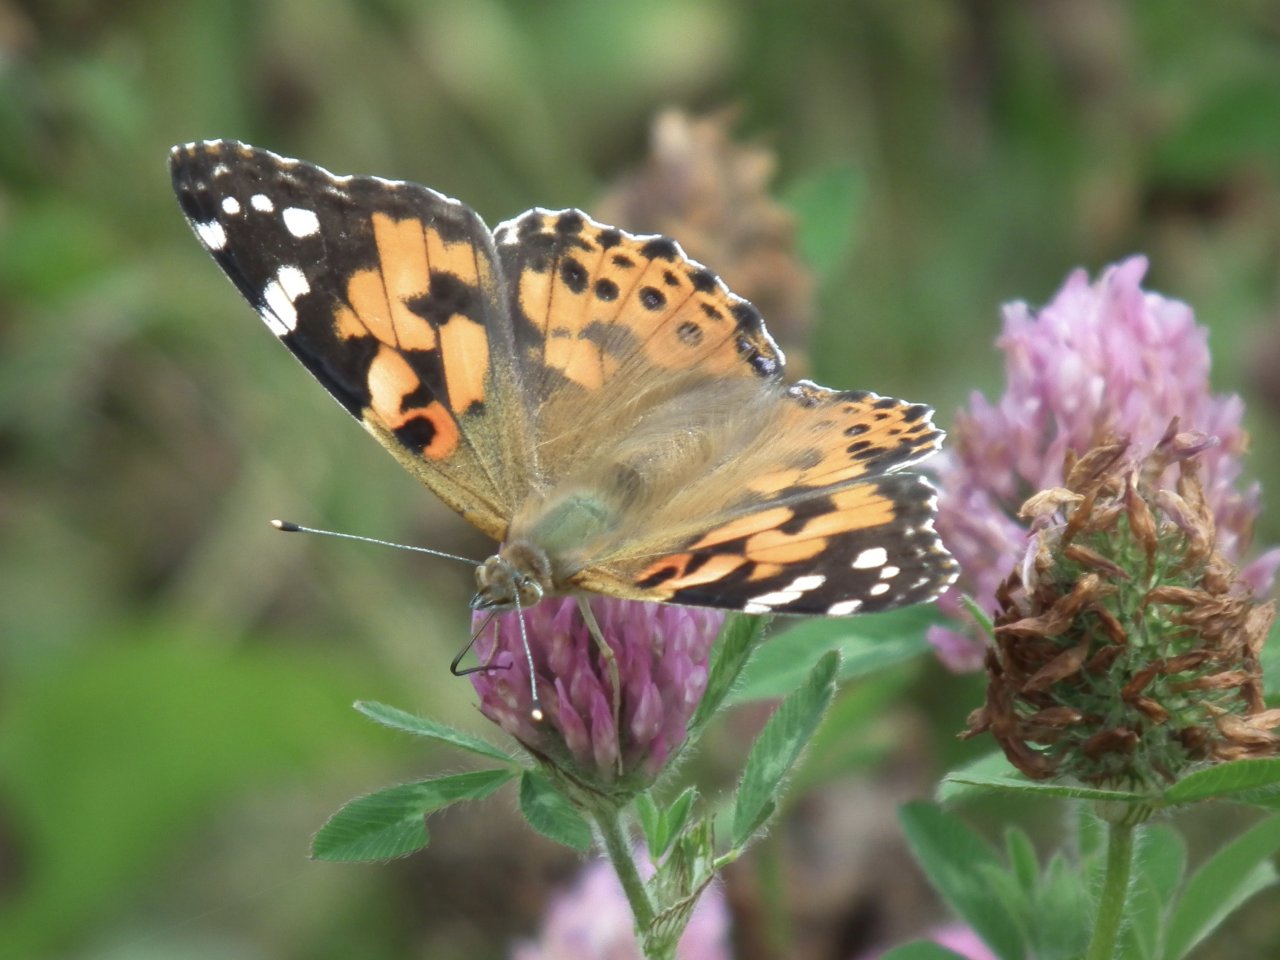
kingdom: Animalia
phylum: Arthropoda
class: Insecta
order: Lepidoptera
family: Nymphalidae
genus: Vanessa
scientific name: Vanessa cardui
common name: Painted Lady
